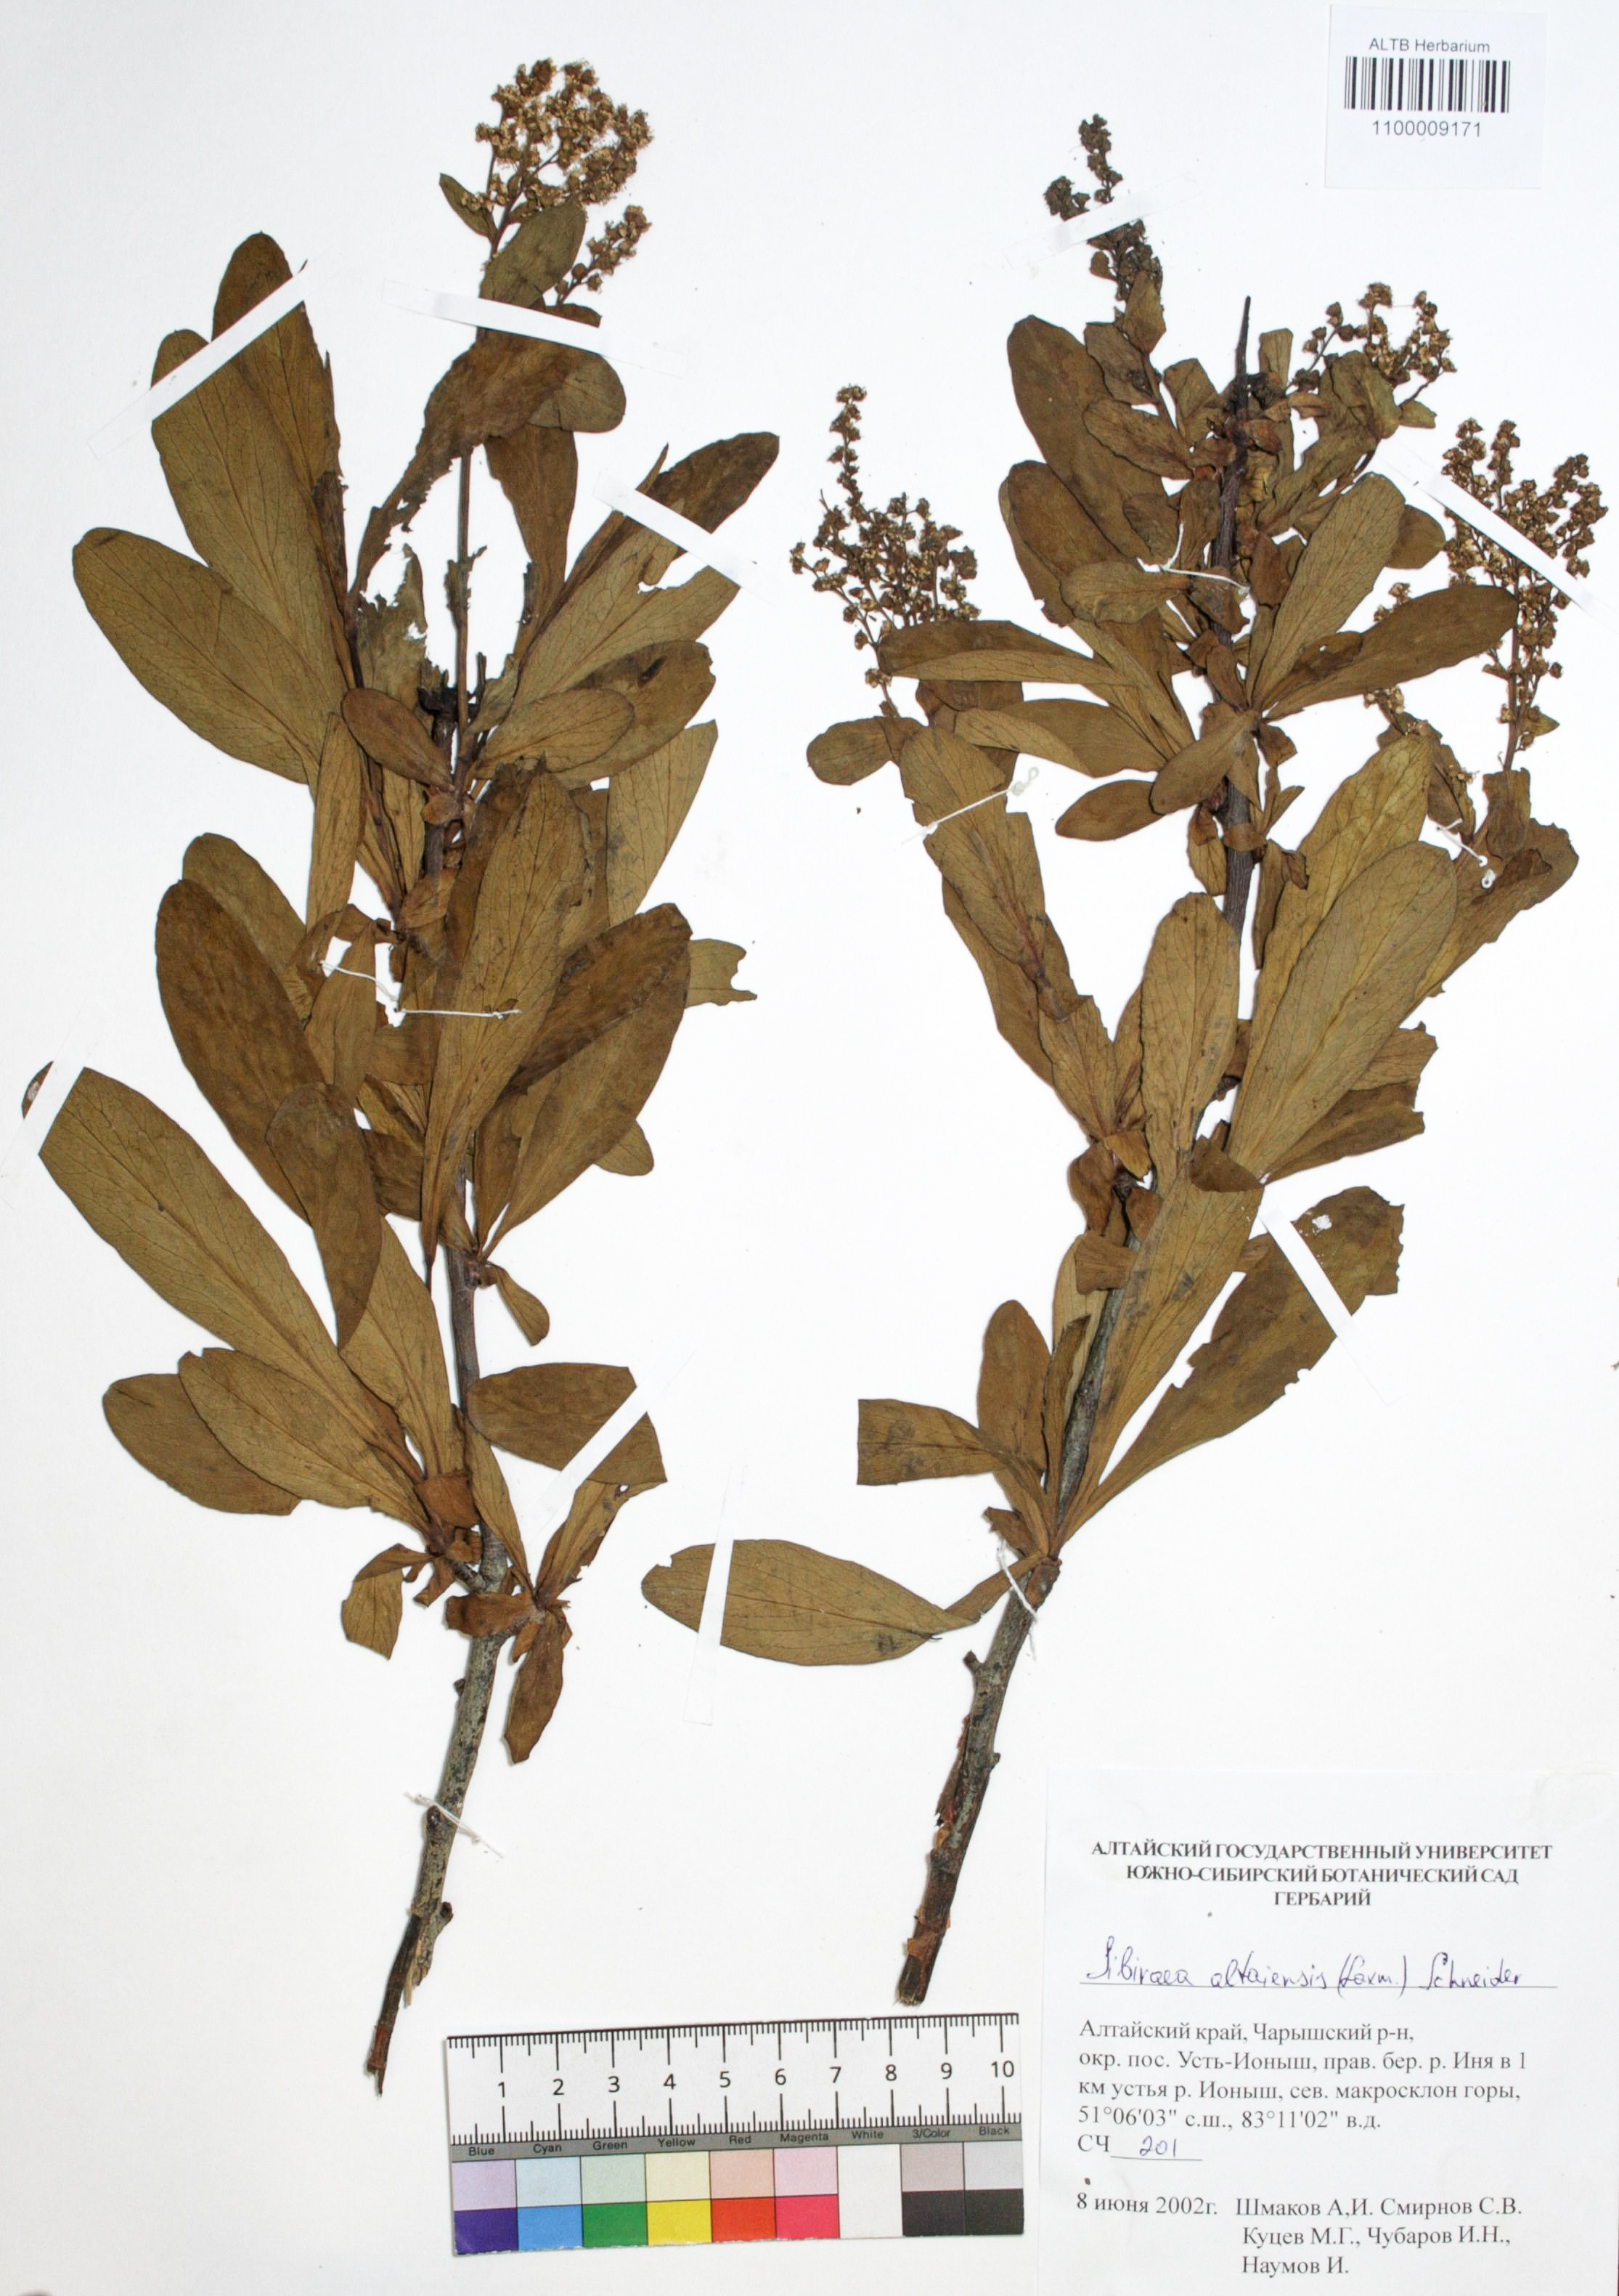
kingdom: Plantae
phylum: Tracheophyta
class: Magnoliopsida
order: Rosales
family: Rosaceae
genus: Sibiraea
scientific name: Sibiraea laevigata
